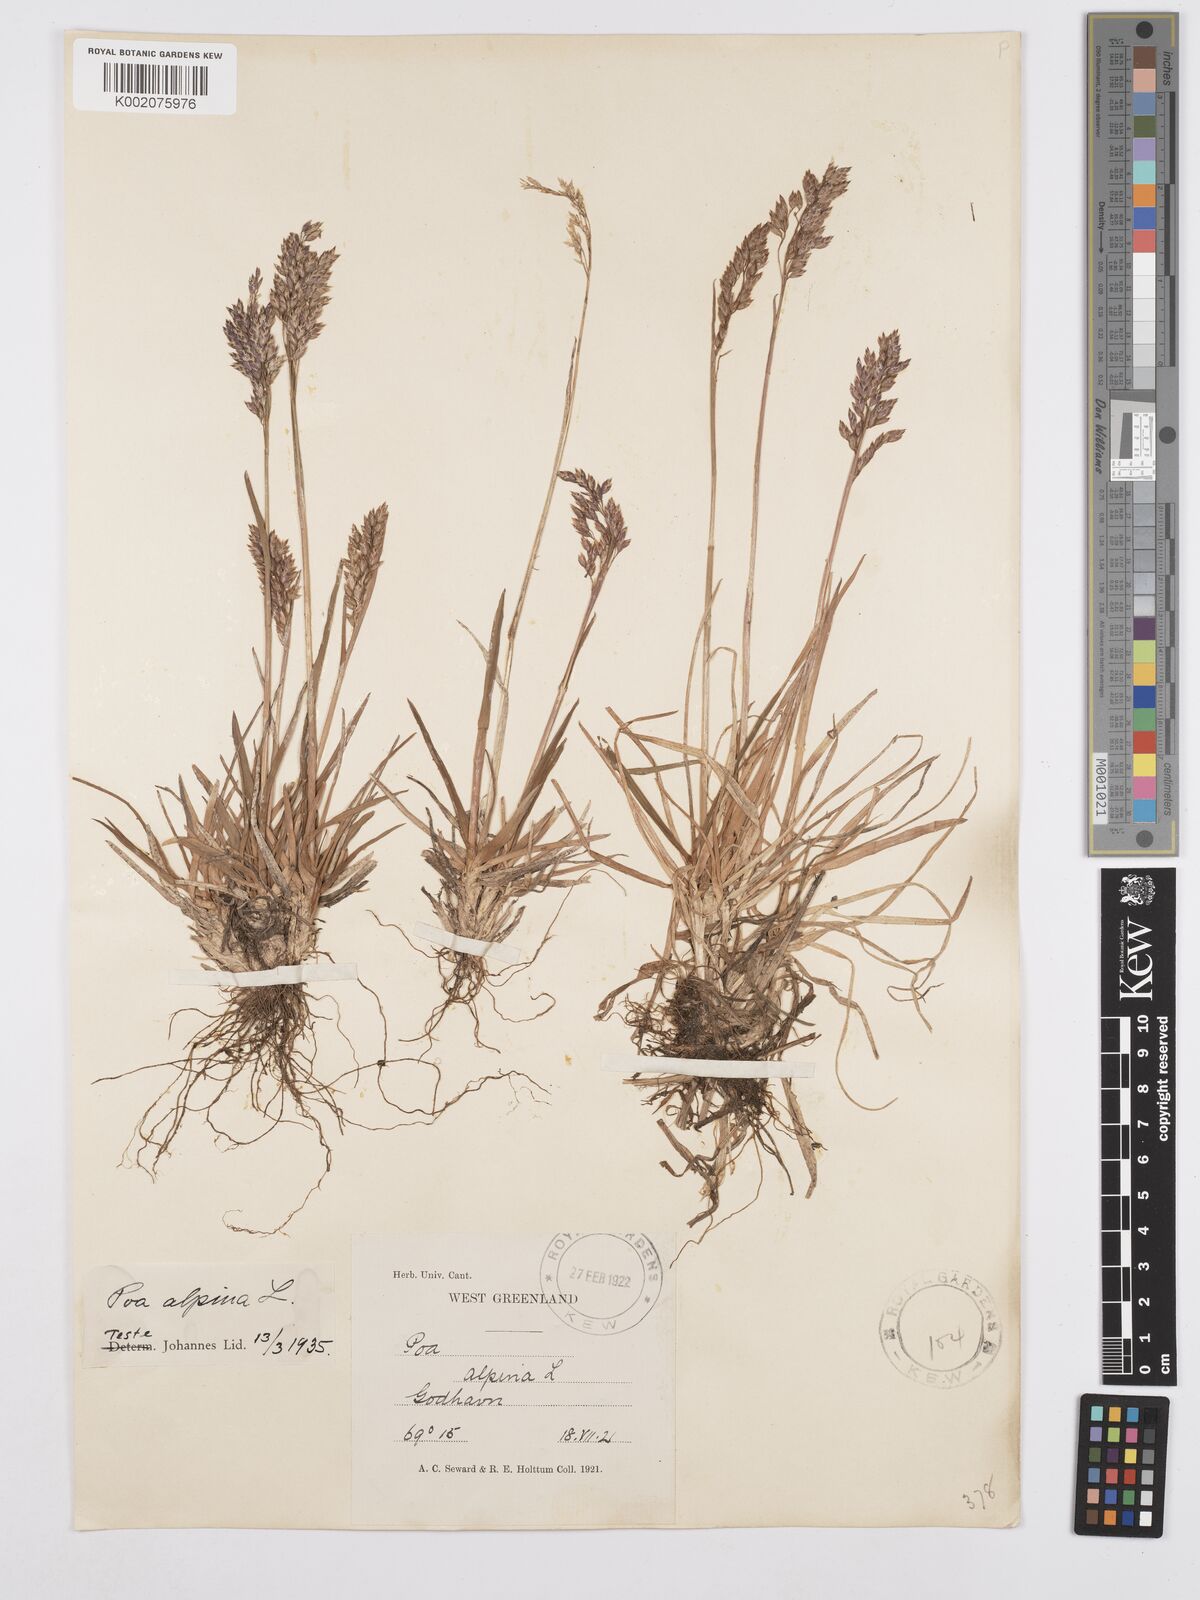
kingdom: Plantae
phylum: Tracheophyta
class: Liliopsida
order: Poales
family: Poaceae
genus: Poa
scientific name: Poa alpina
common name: Alpine bluegrass
